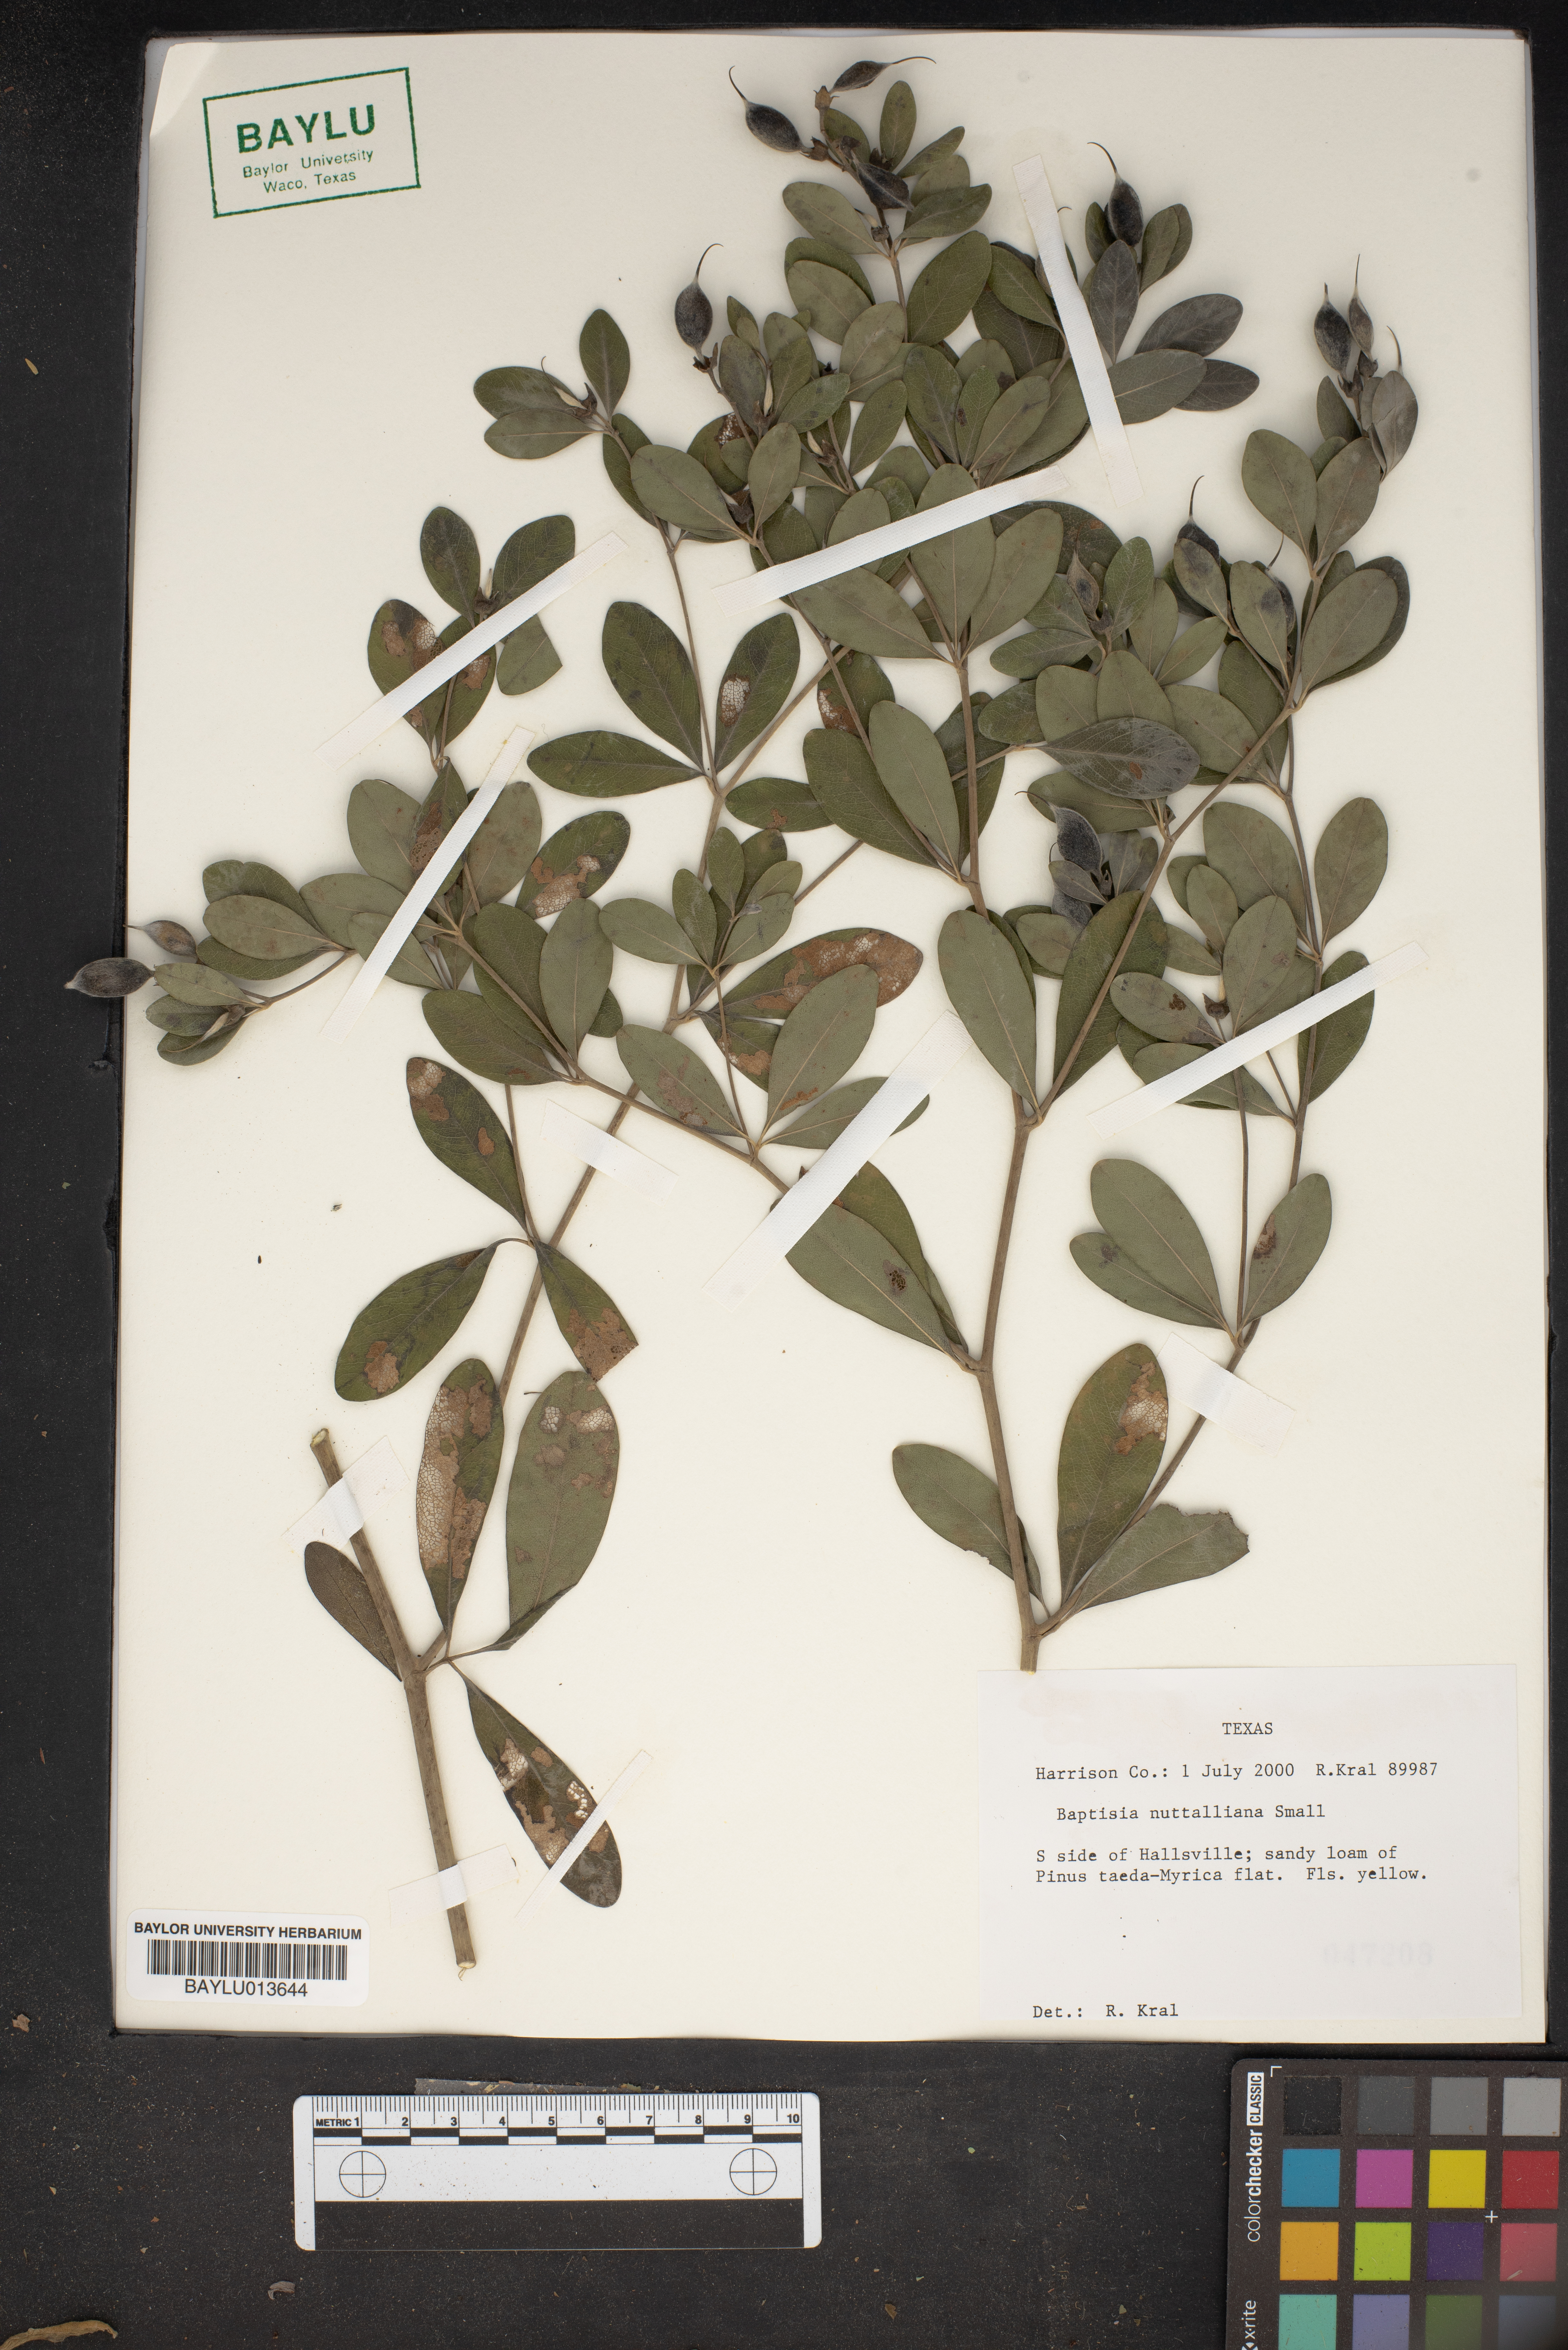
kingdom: Plantae
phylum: Tracheophyta
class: Magnoliopsida
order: Fabales
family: Fabaceae
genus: Baptisia
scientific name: Baptisia nuttalliana
